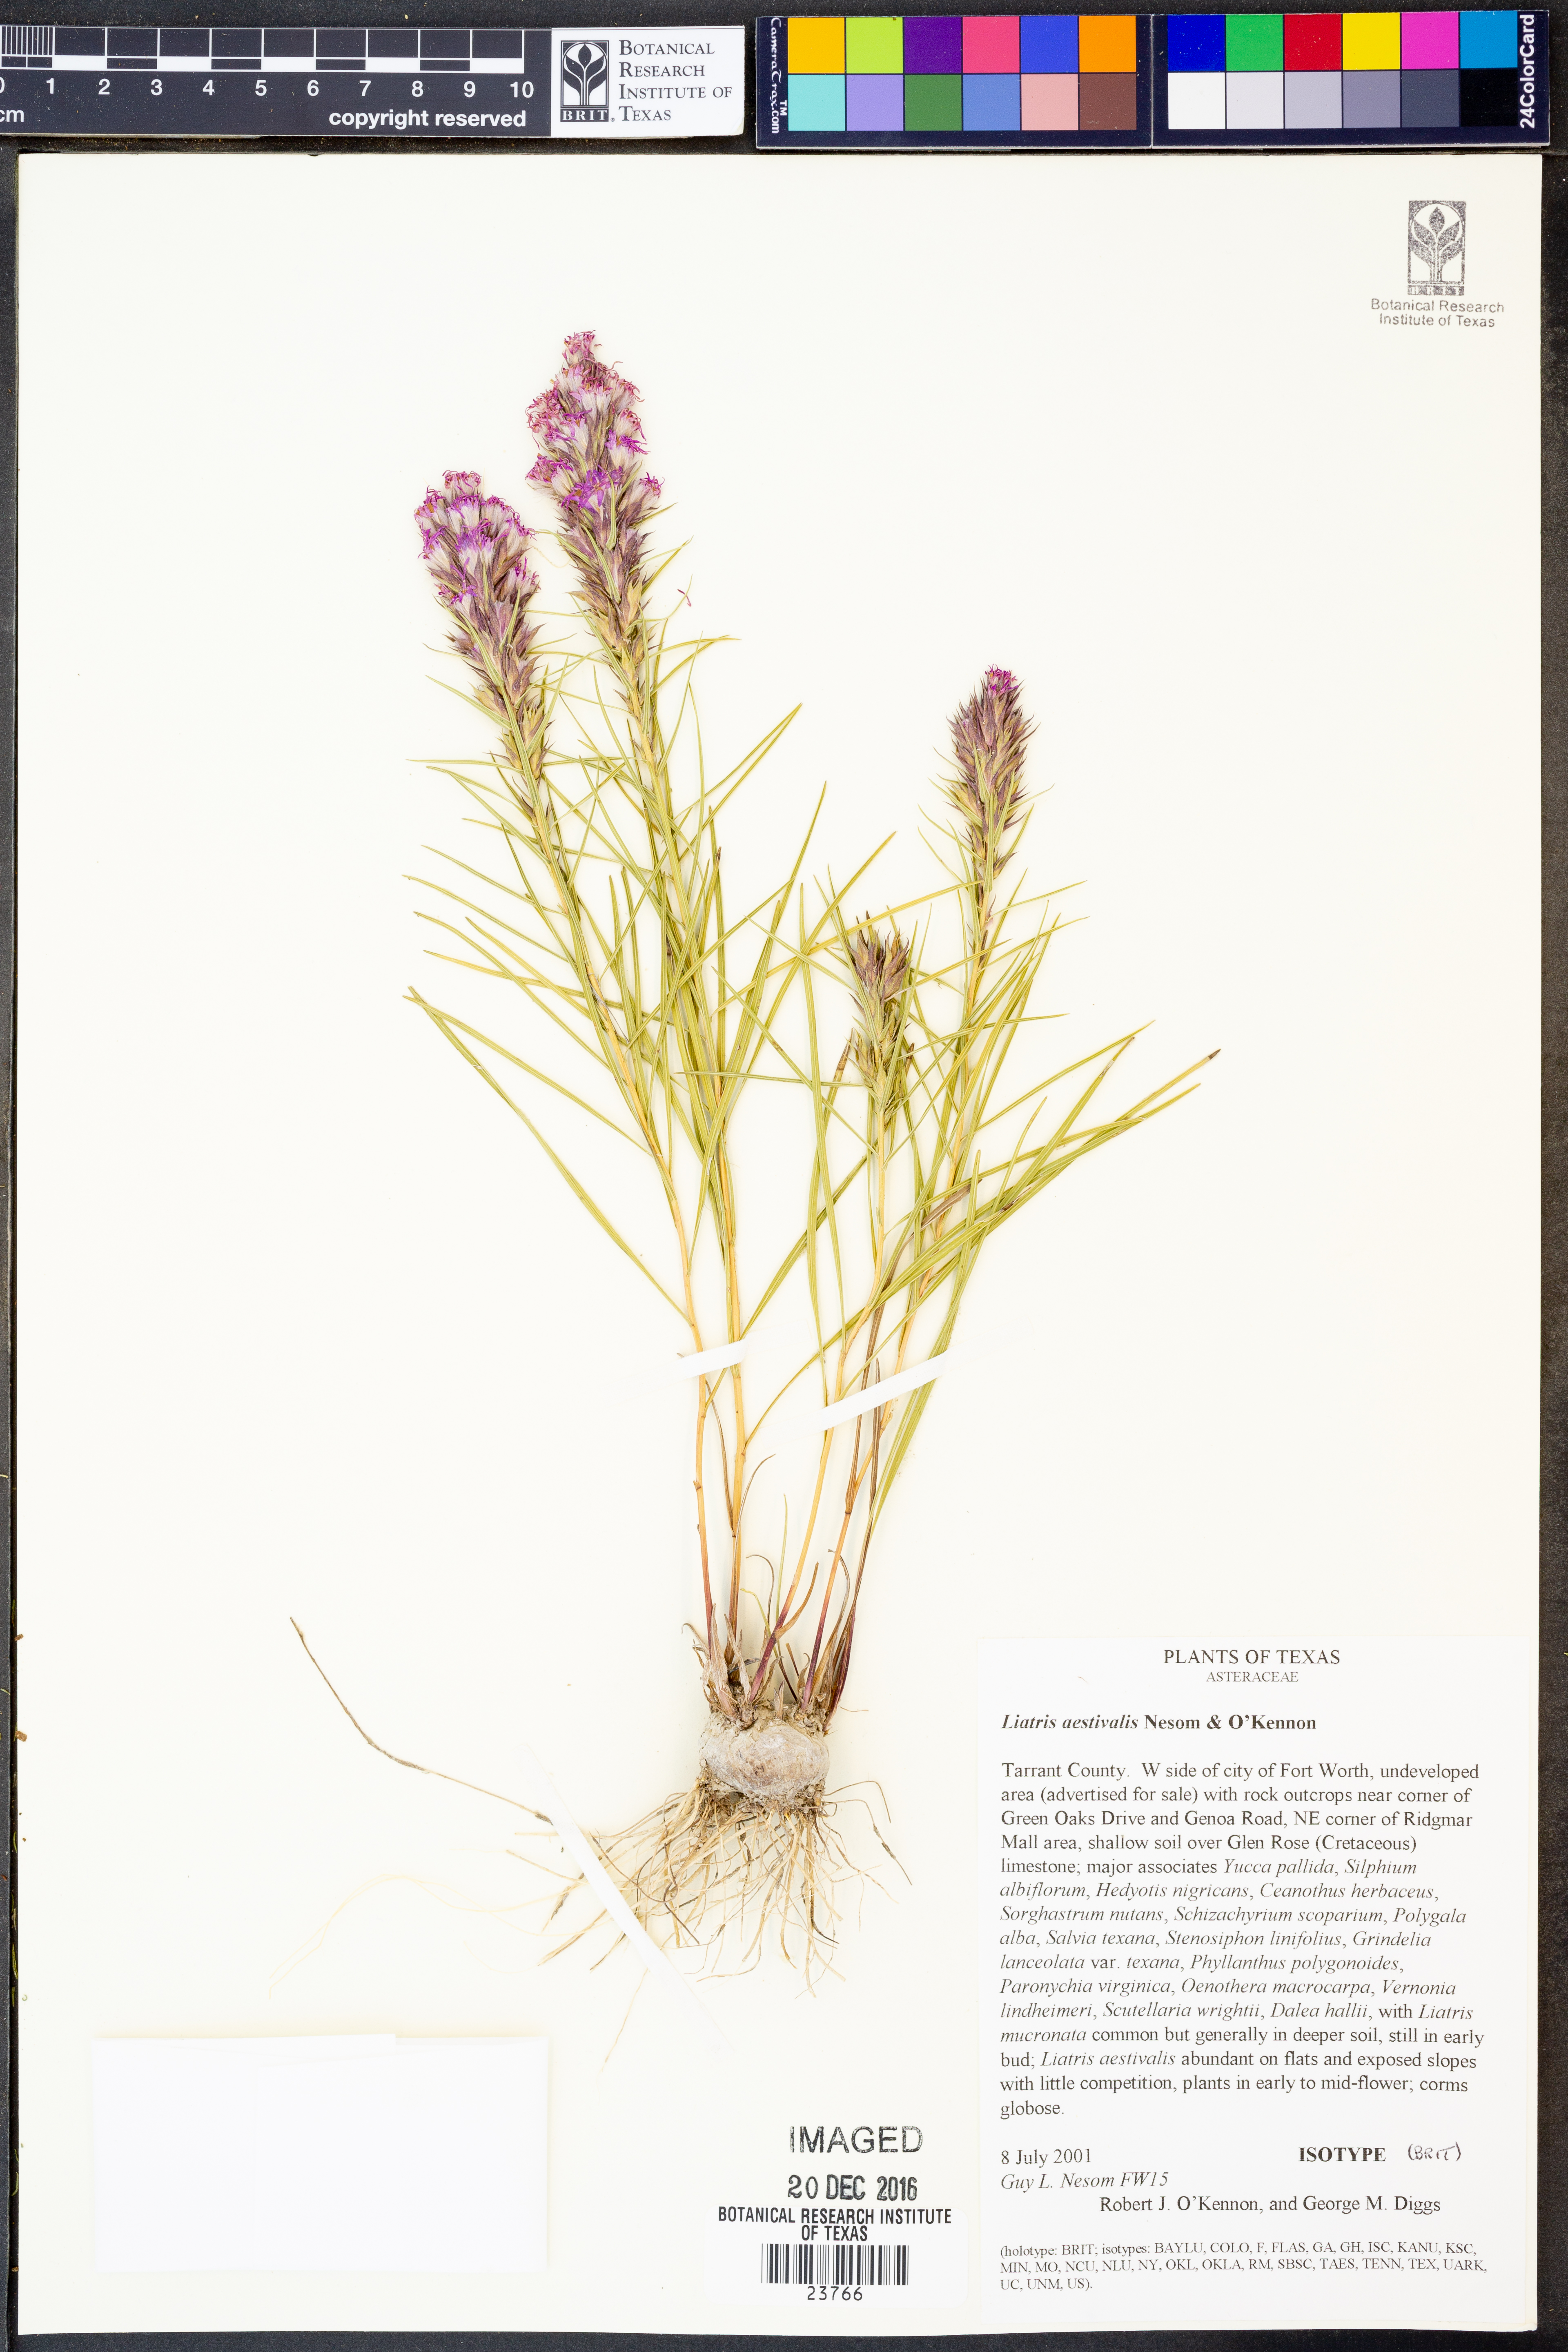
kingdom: Plantae
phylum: Tracheophyta
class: Magnoliopsida
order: Asterales
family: Asteraceae
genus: Liatris
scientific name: Liatris aestivalis
